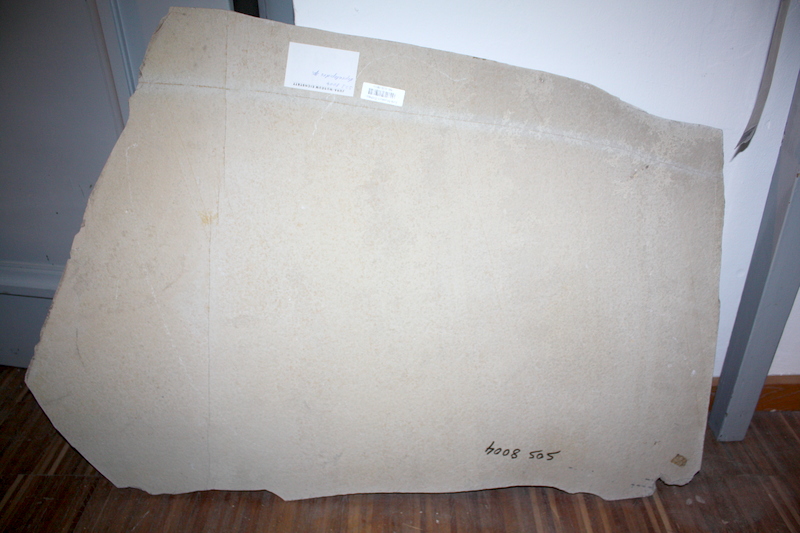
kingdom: Animalia
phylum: Chordata
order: Salmoniformes
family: Orthogonikleithridae
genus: Leptolepides
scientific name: Leptolepides sprattiformis
